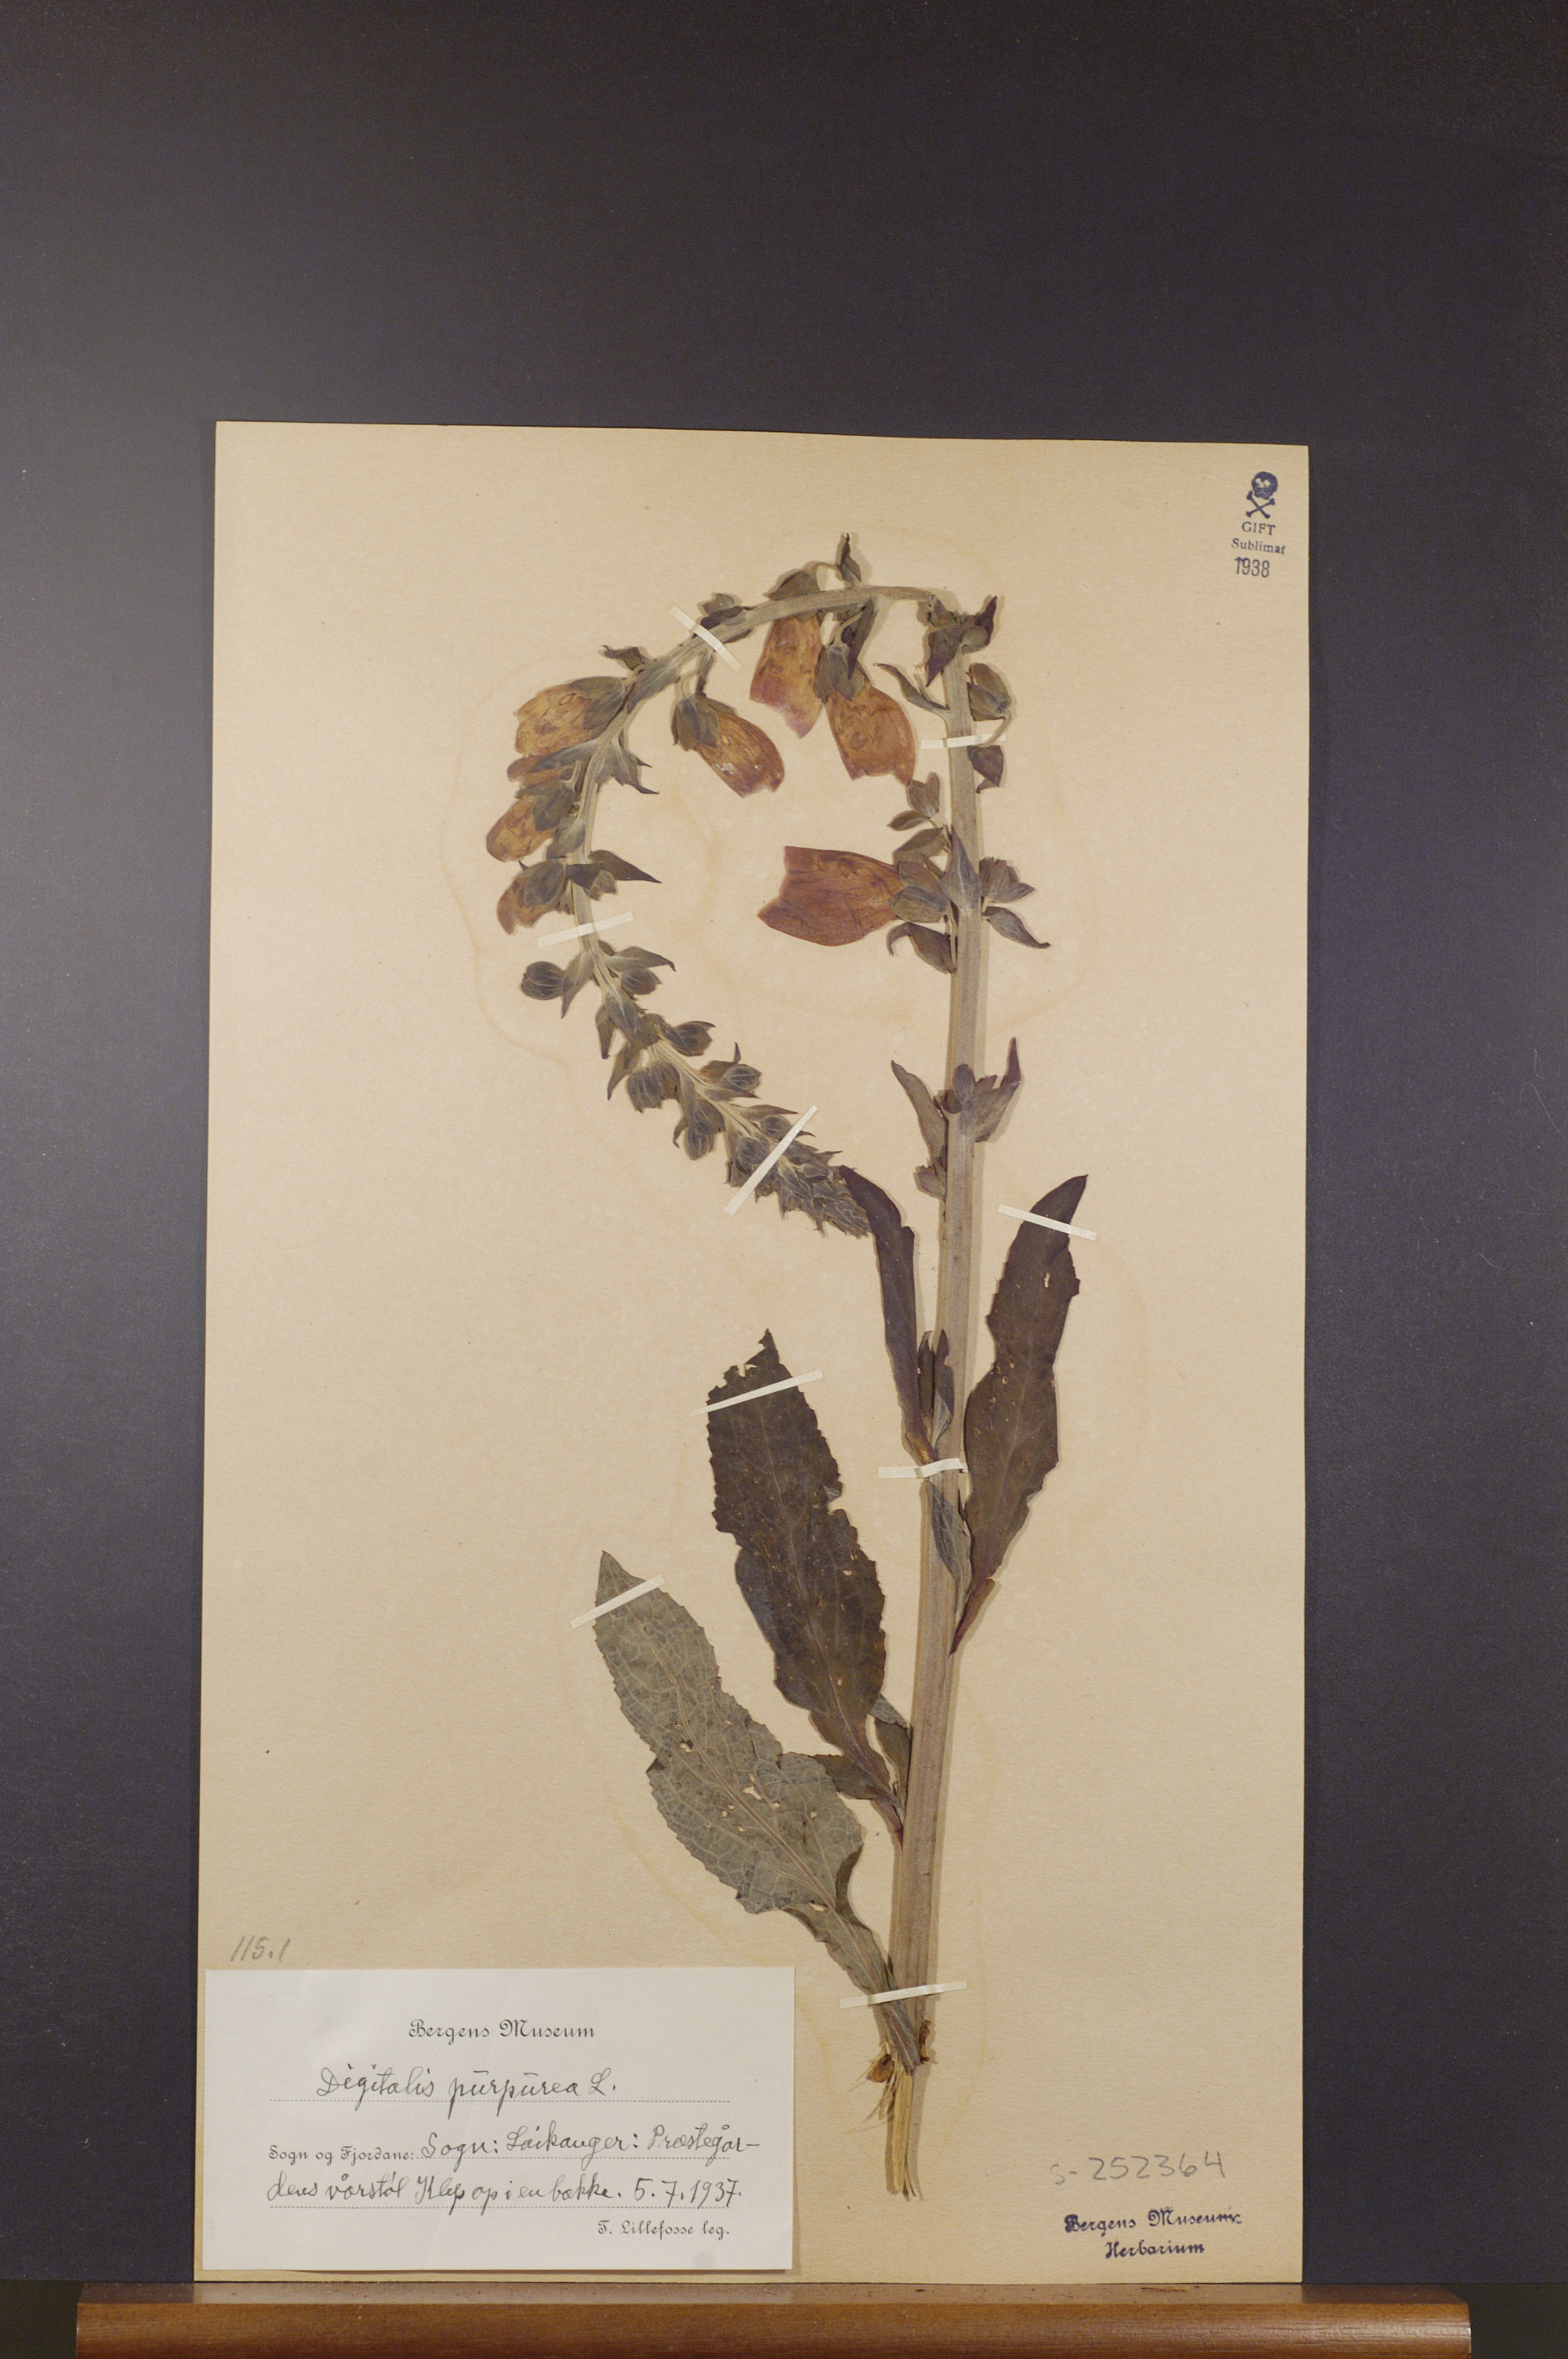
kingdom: Plantae
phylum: Tracheophyta
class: Magnoliopsida
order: Lamiales
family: Plantaginaceae
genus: Digitalis
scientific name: Digitalis purpurea
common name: Foxglove
